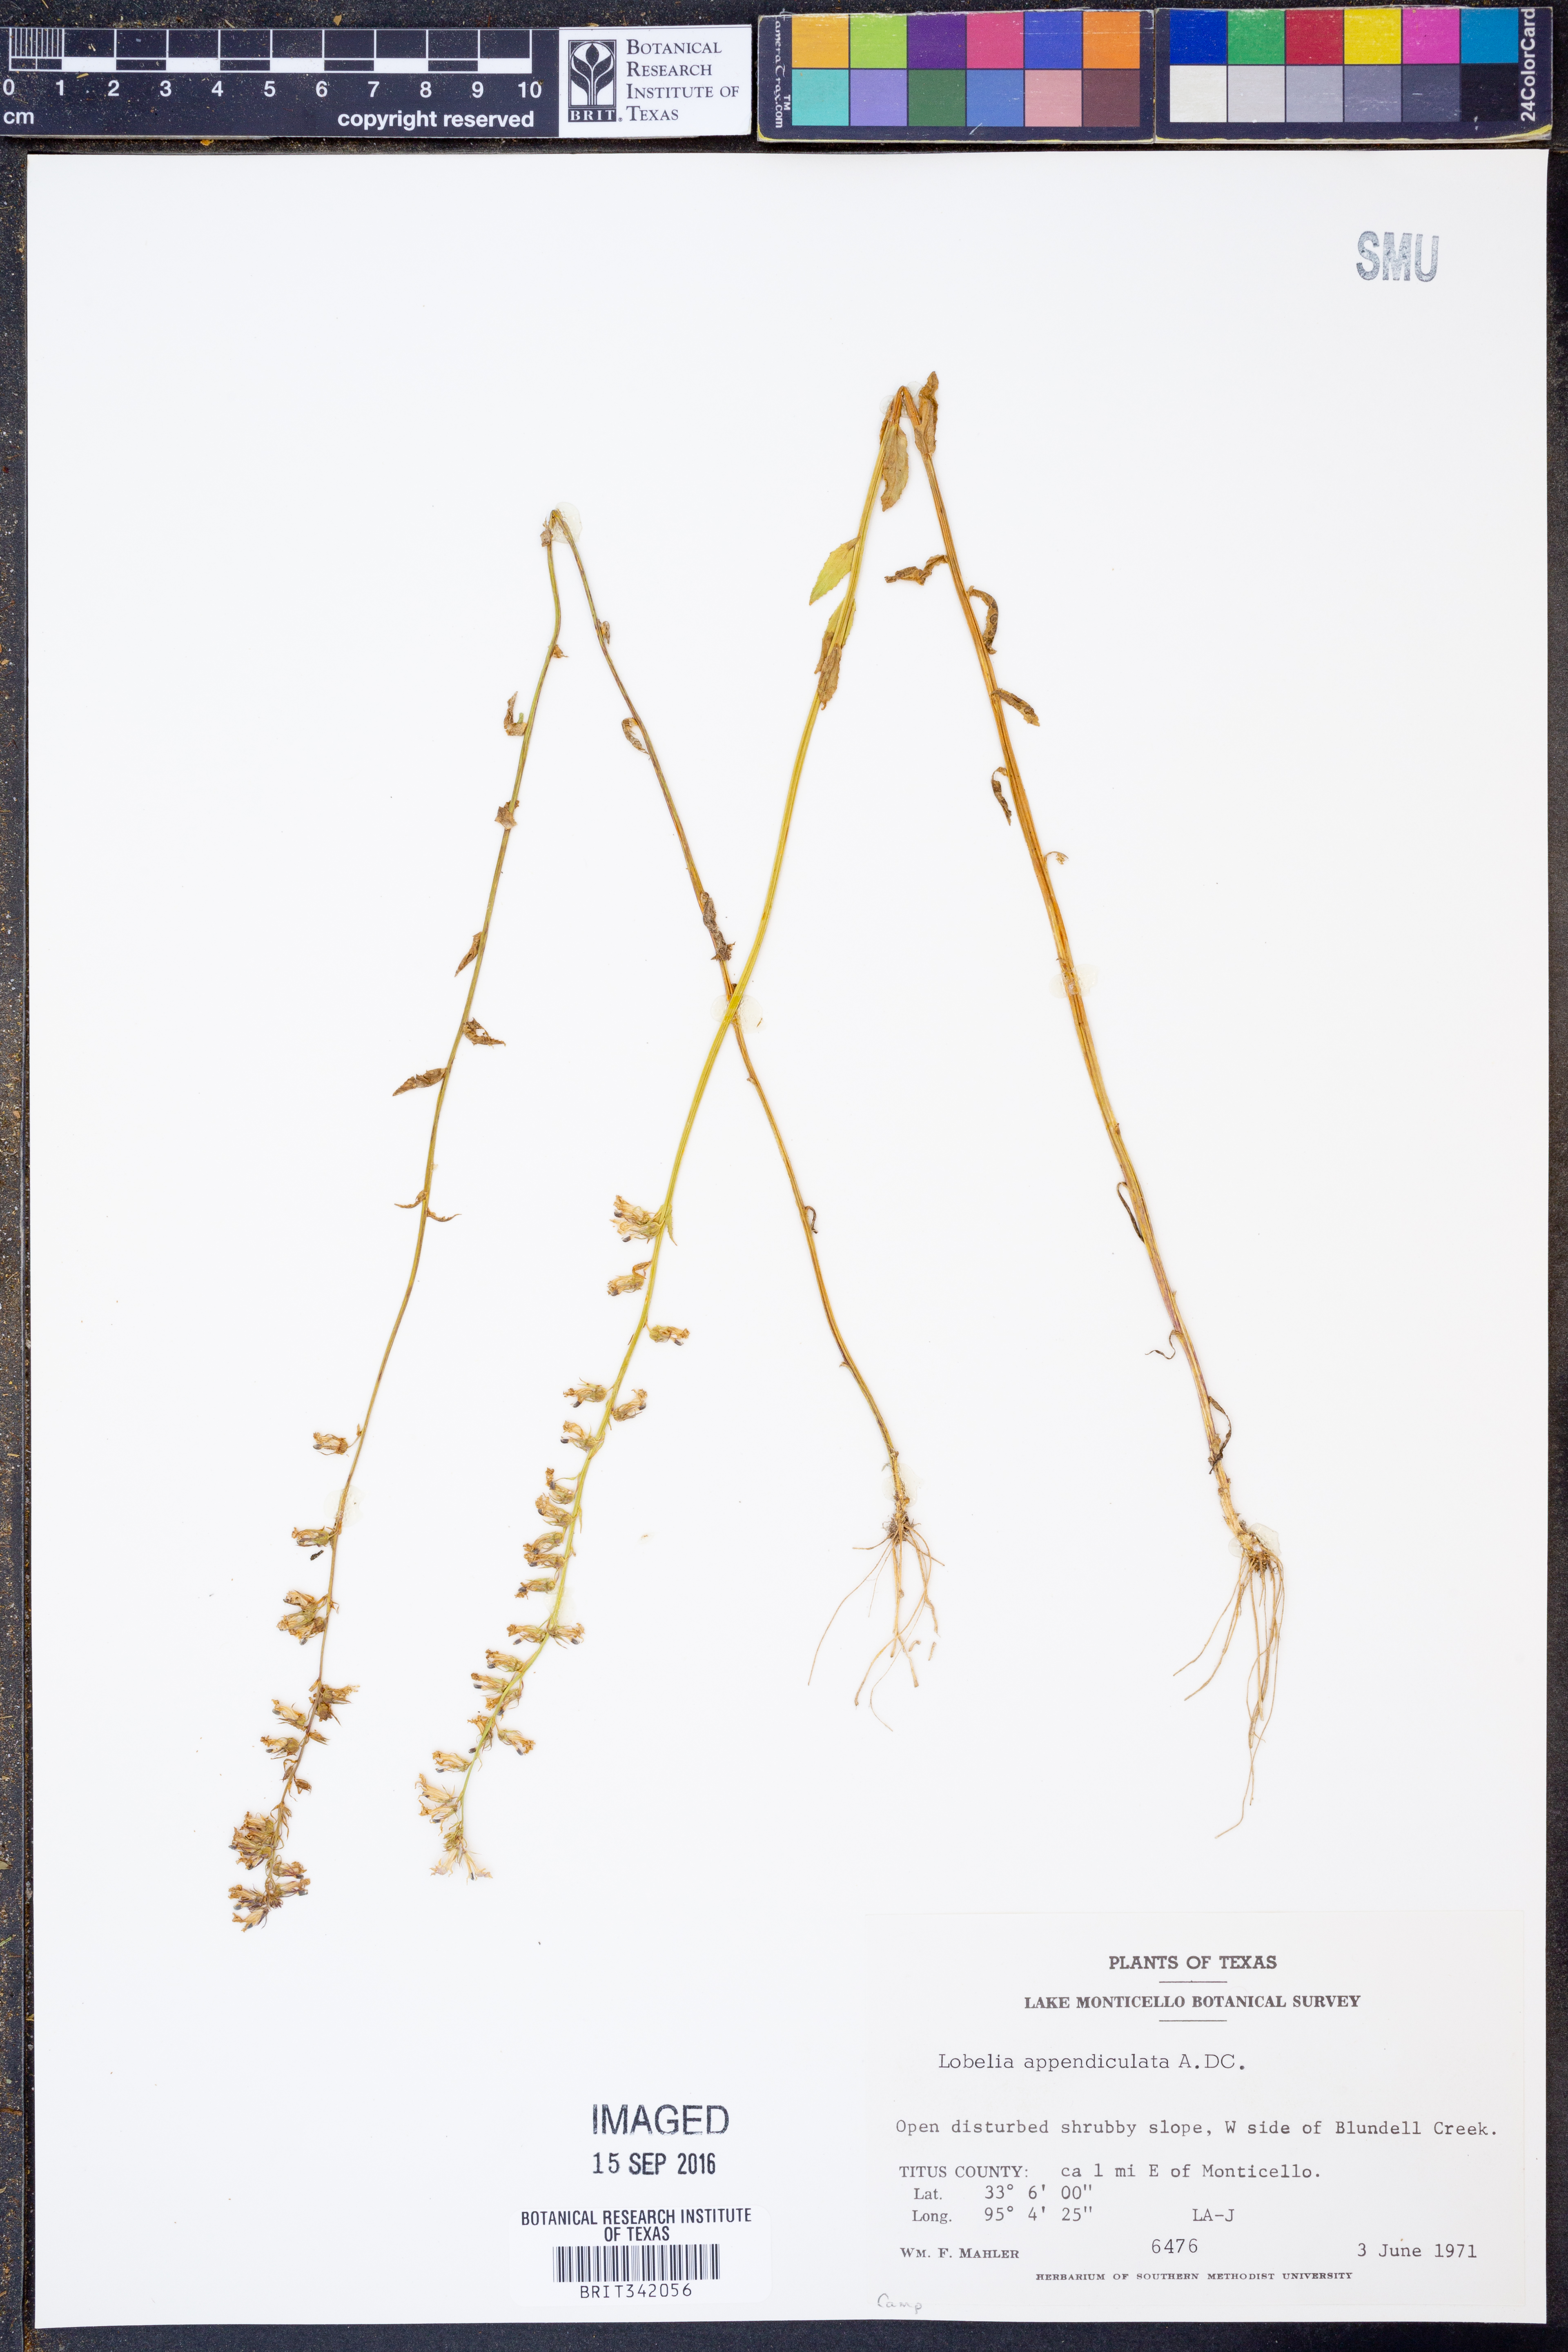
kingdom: Plantae
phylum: Tracheophyta
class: Magnoliopsida
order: Asterales
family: Campanulaceae
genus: Lobelia
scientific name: Lobelia appendiculata
